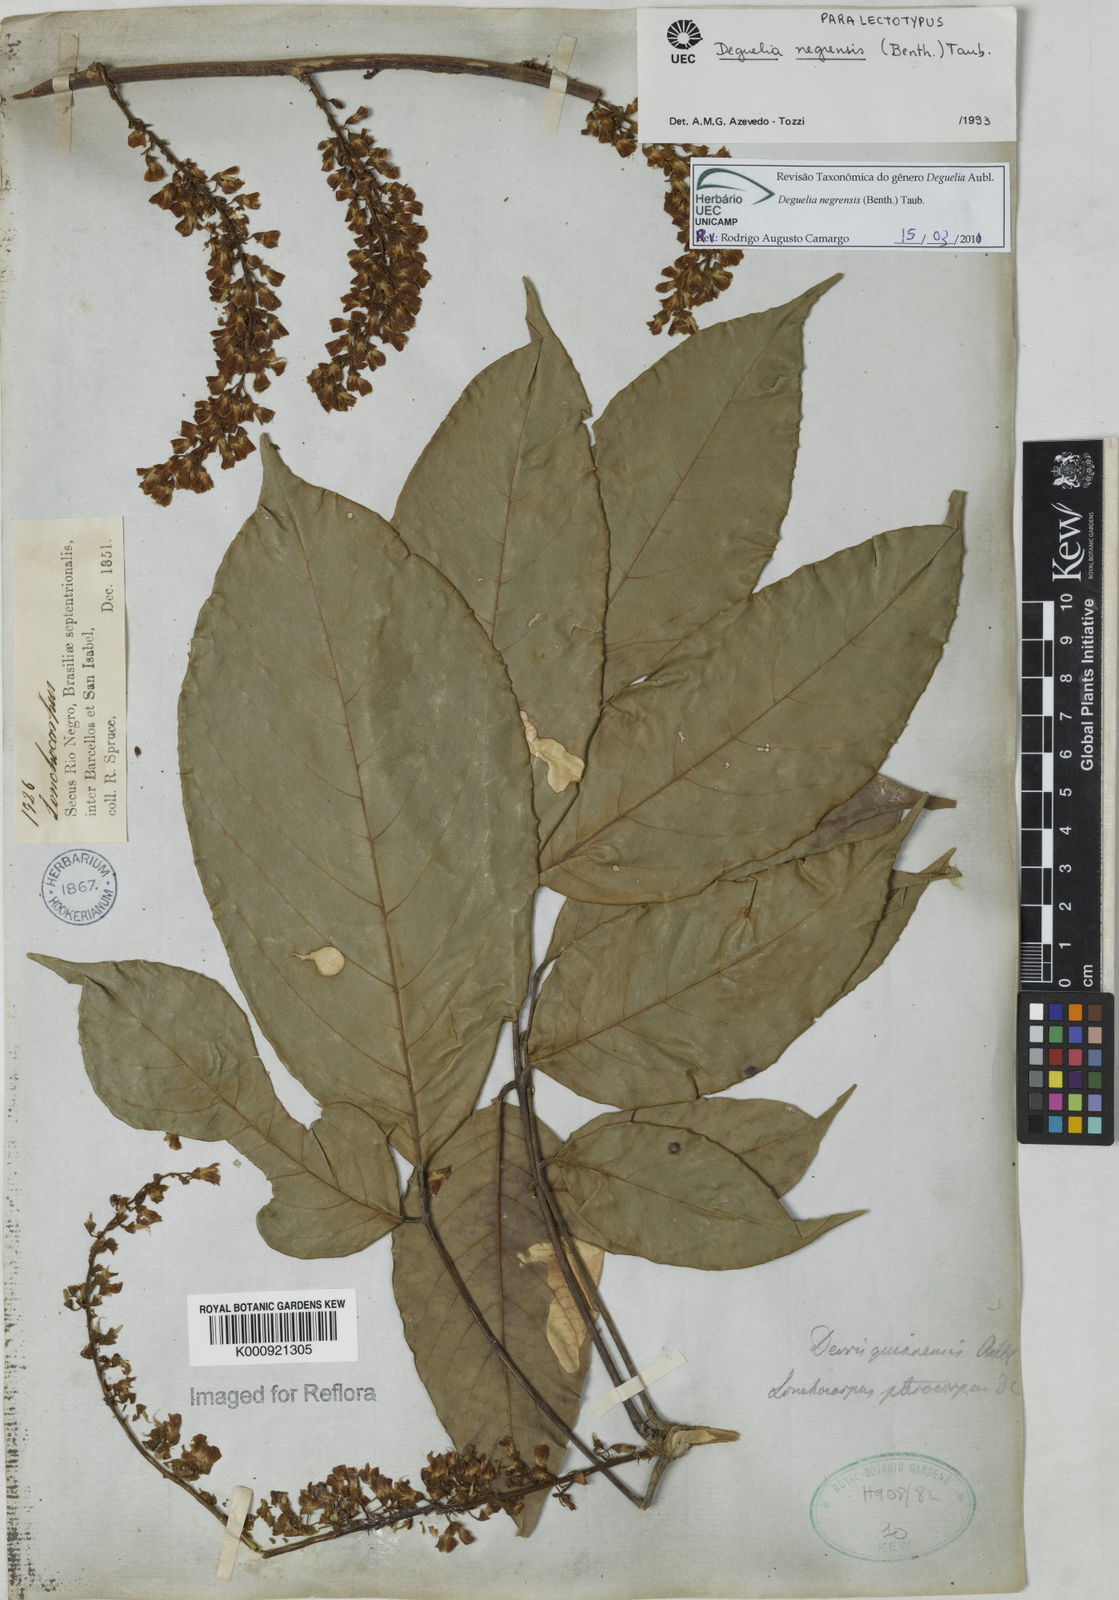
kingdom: Plantae
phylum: Tracheophyta
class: Magnoliopsida
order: Fabales
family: Fabaceae
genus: Deguelia
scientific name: Deguelia negrensis
